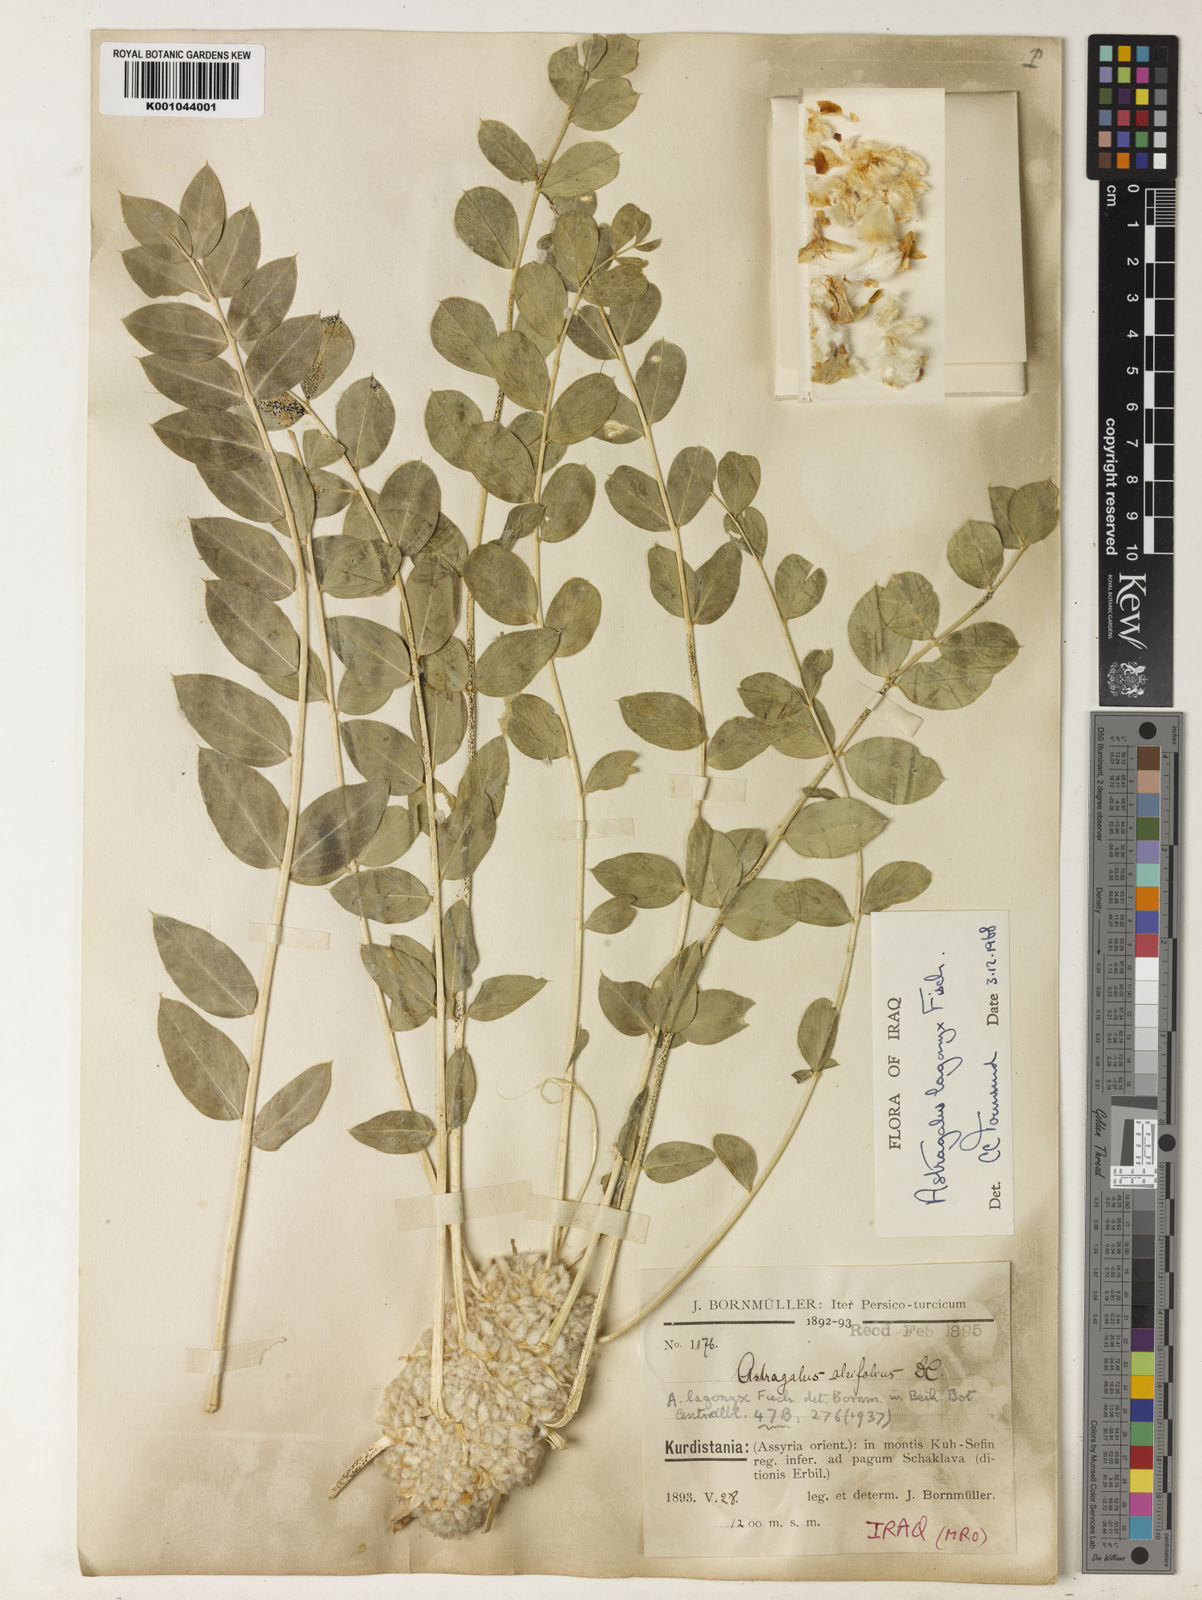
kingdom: Plantae
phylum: Tracheophyta
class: Magnoliopsida
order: Fabales
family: Fabaceae
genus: Astragalus
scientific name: Astragalus oleifolius
